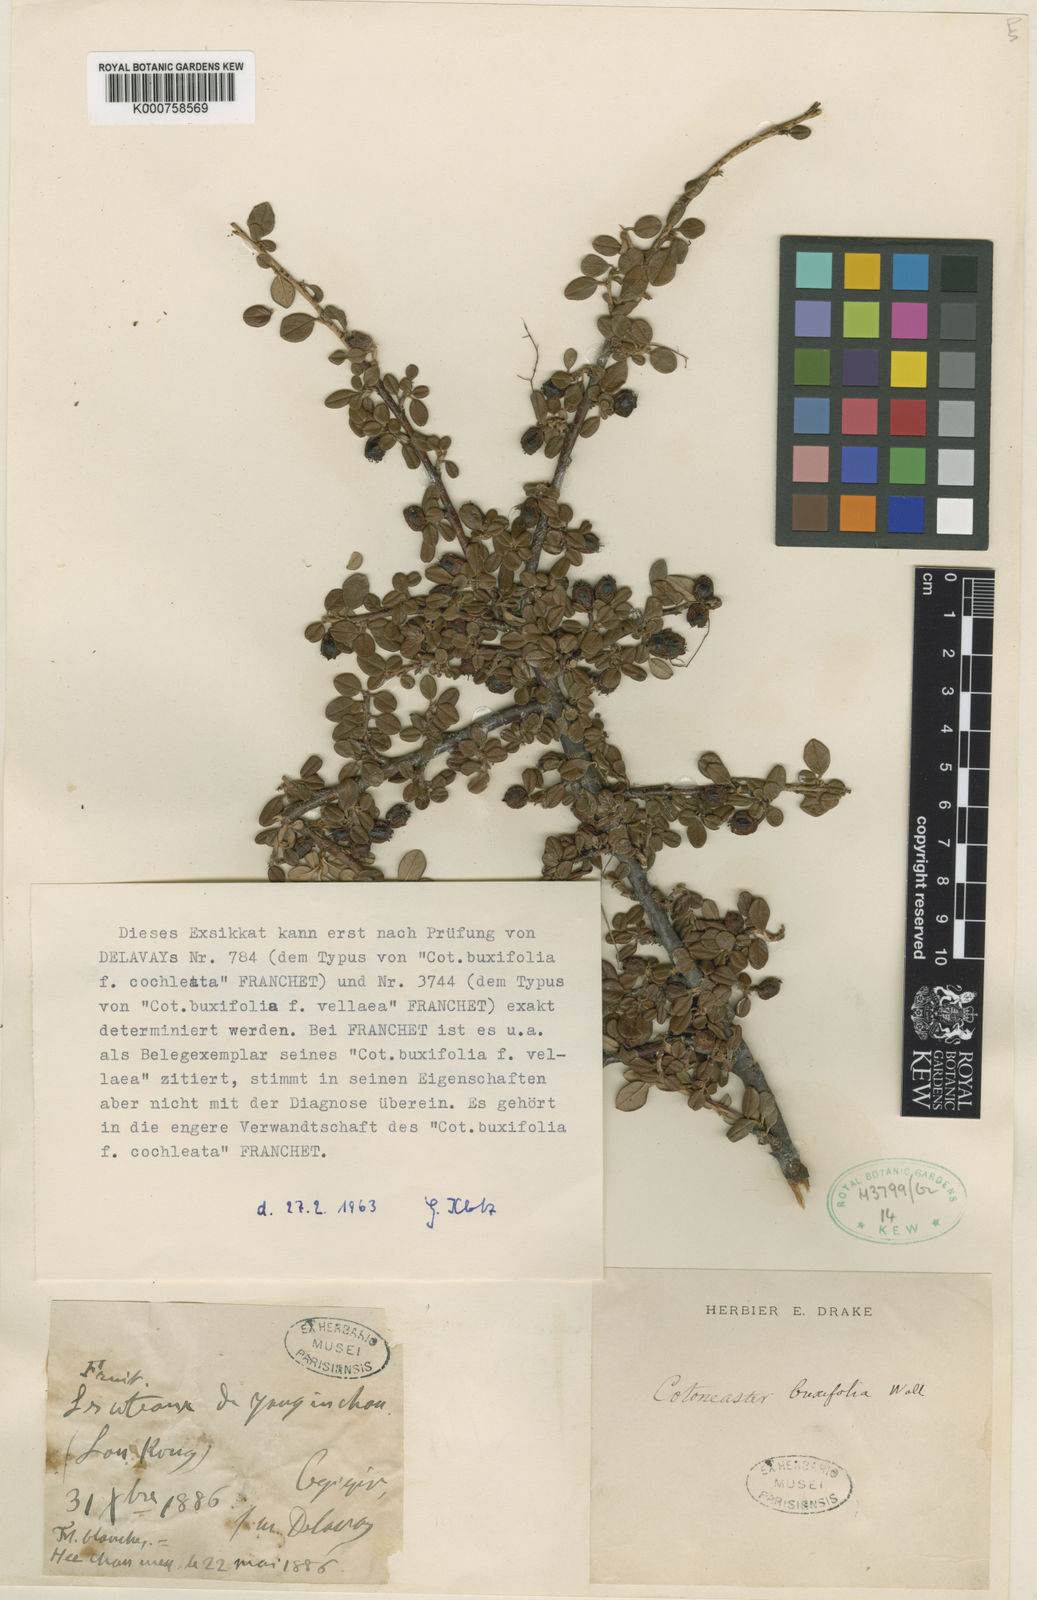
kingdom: Plantae
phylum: Tracheophyta
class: Magnoliopsida
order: Rosales
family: Rosaceae
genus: Cotoneaster
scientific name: Cotoneaster microphyllus
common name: Small-leaved cotoneaster
